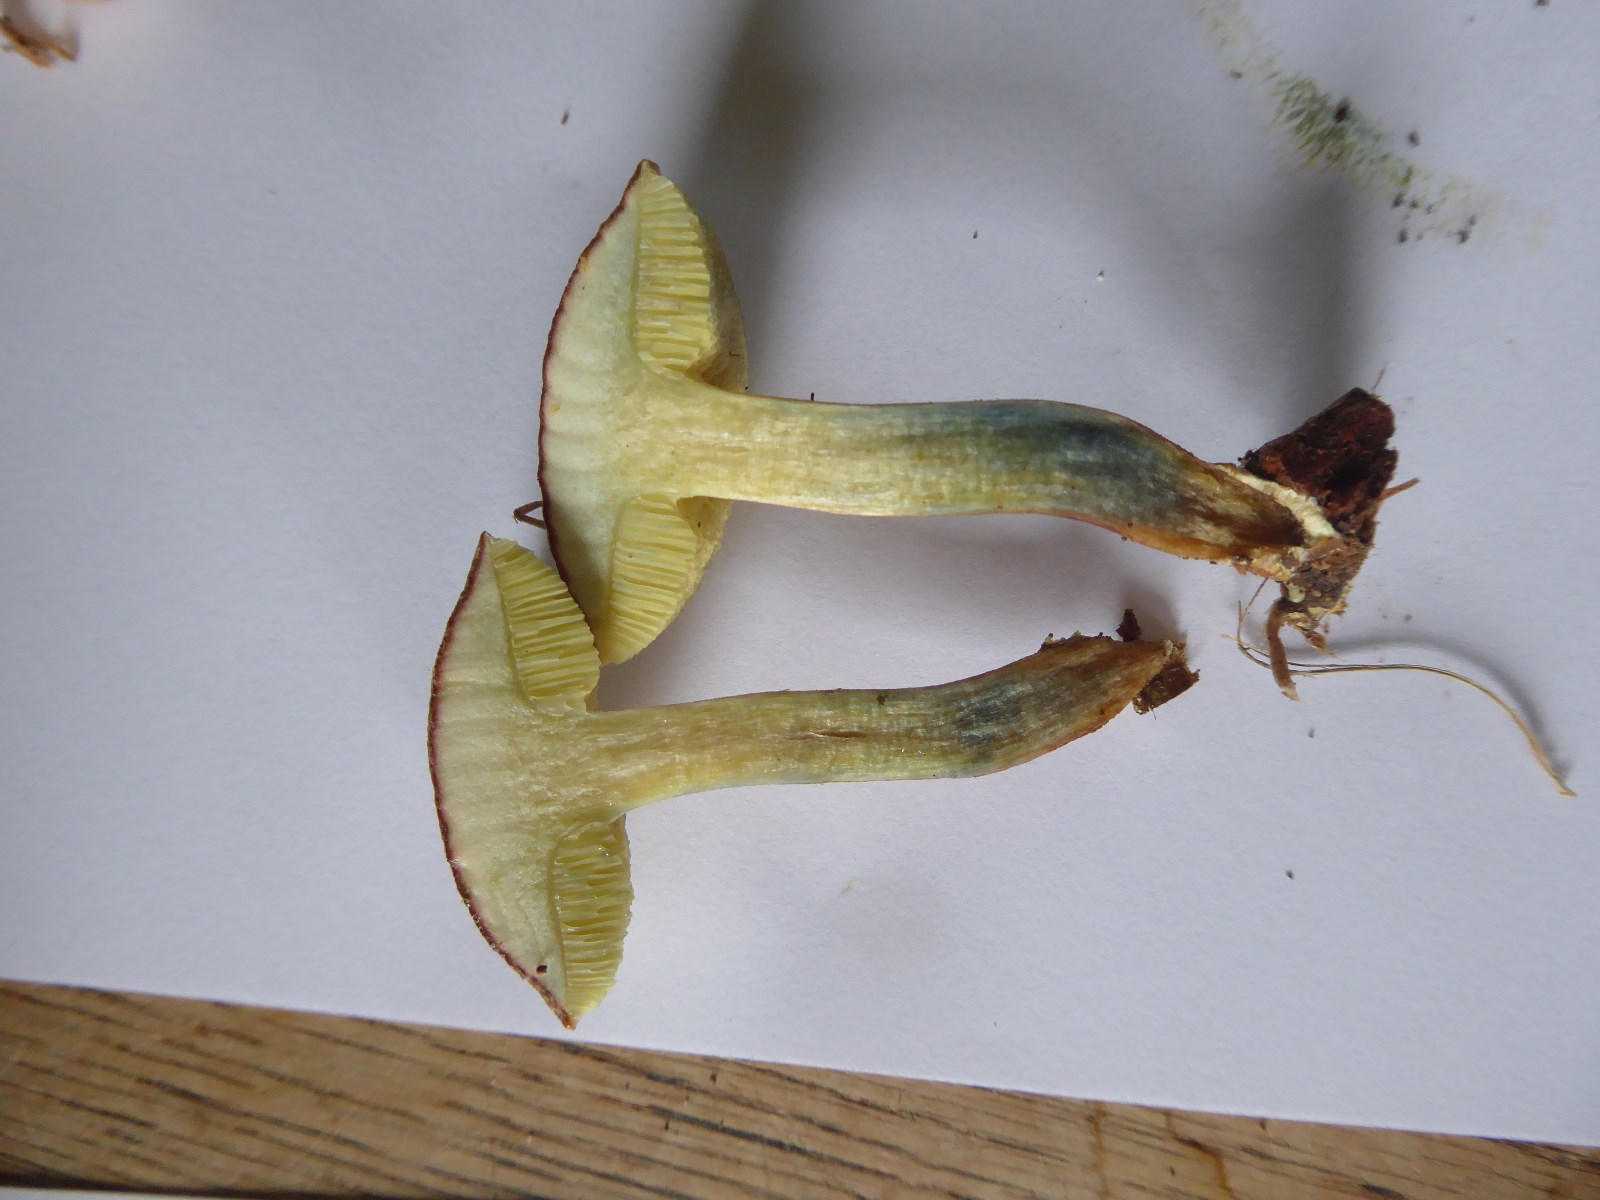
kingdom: Fungi
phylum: Basidiomycota
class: Agaricomycetes
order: Boletales
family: Boletaceae
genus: Xerocomellus
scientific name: Xerocomellus cisalpinus
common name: finsprukken rørhat
